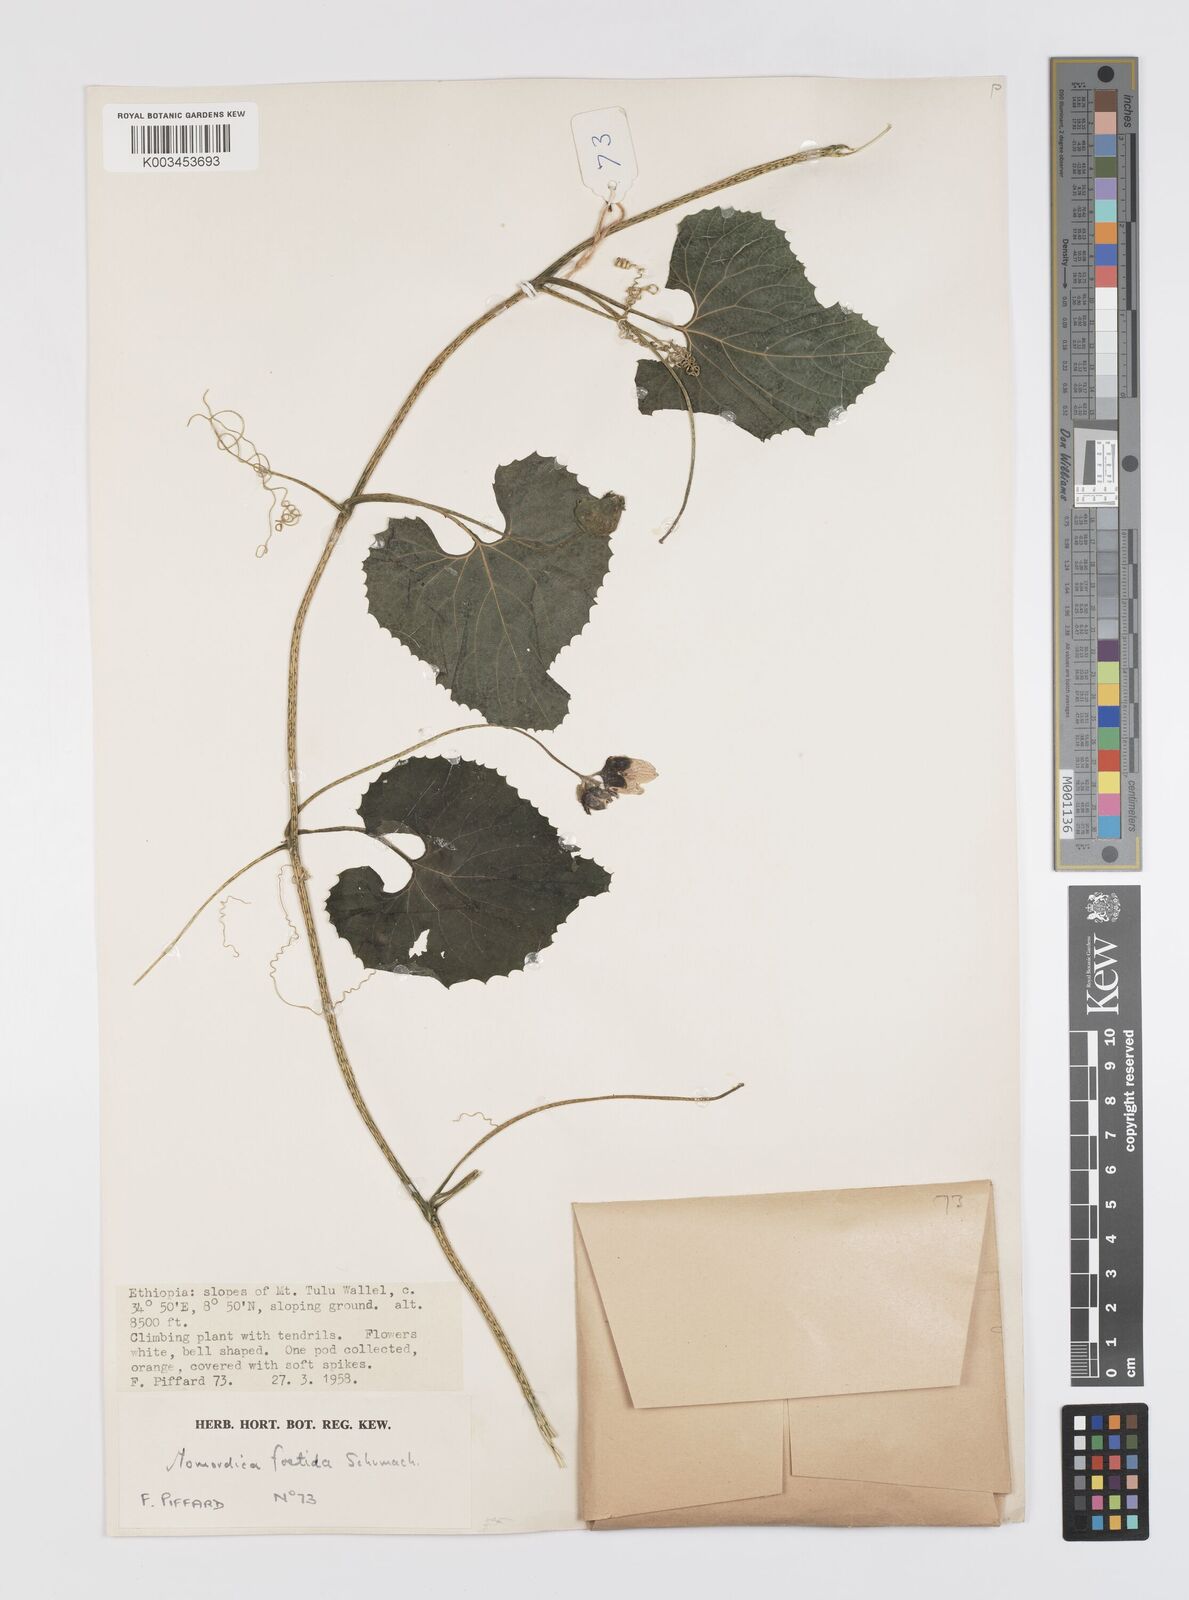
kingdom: Plantae
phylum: Tracheophyta
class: Magnoliopsida
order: Cucurbitales
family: Cucurbitaceae
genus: Momordica
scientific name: Momordica foetida
